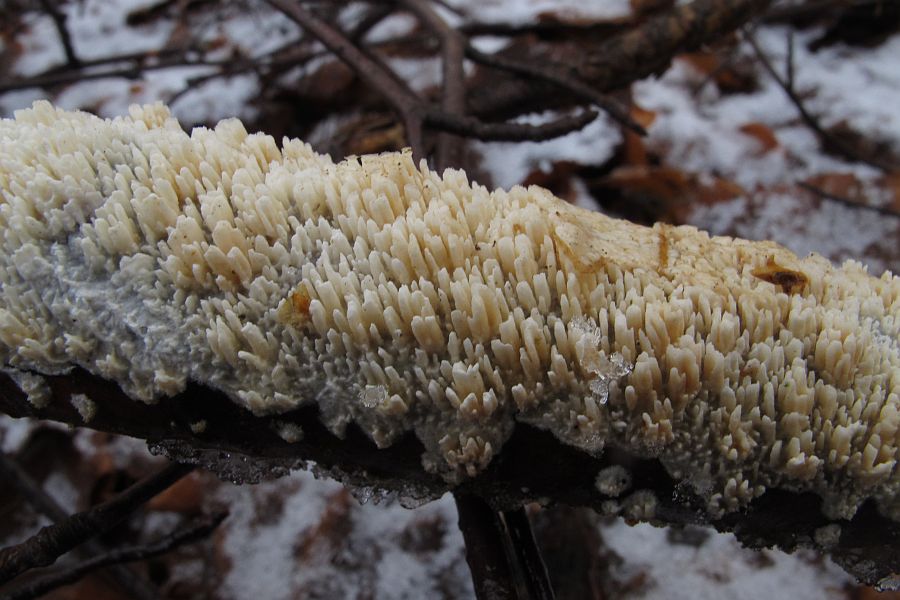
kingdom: Fungi
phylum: Basidiomycota
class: Agaricomycetes
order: Hymenochaetales
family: Schizoporaceae
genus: Schizopora
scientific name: Schizopora paradoxa
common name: hvid tandsvamp
